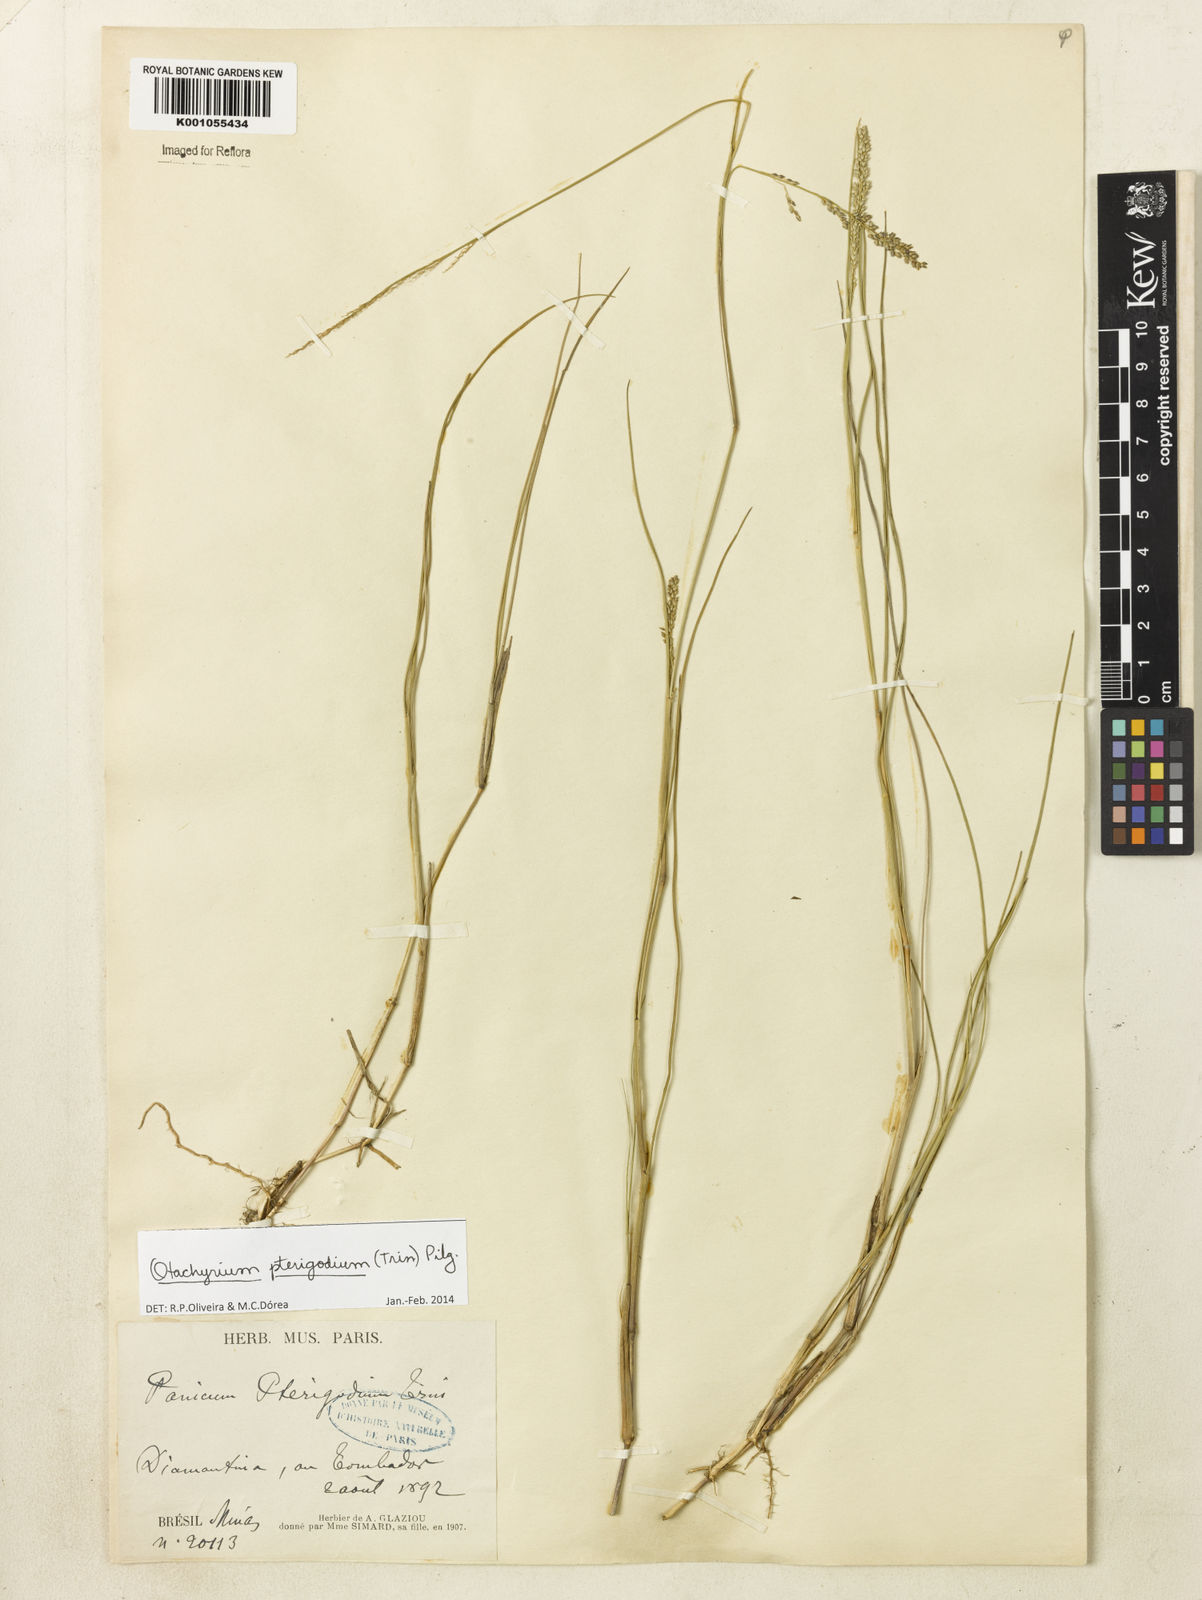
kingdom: Plantae
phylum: Tracheophyta
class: Liliopsida
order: Poales
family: Poaceae
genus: Otachyrium
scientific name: Otachyrium pterigodium
